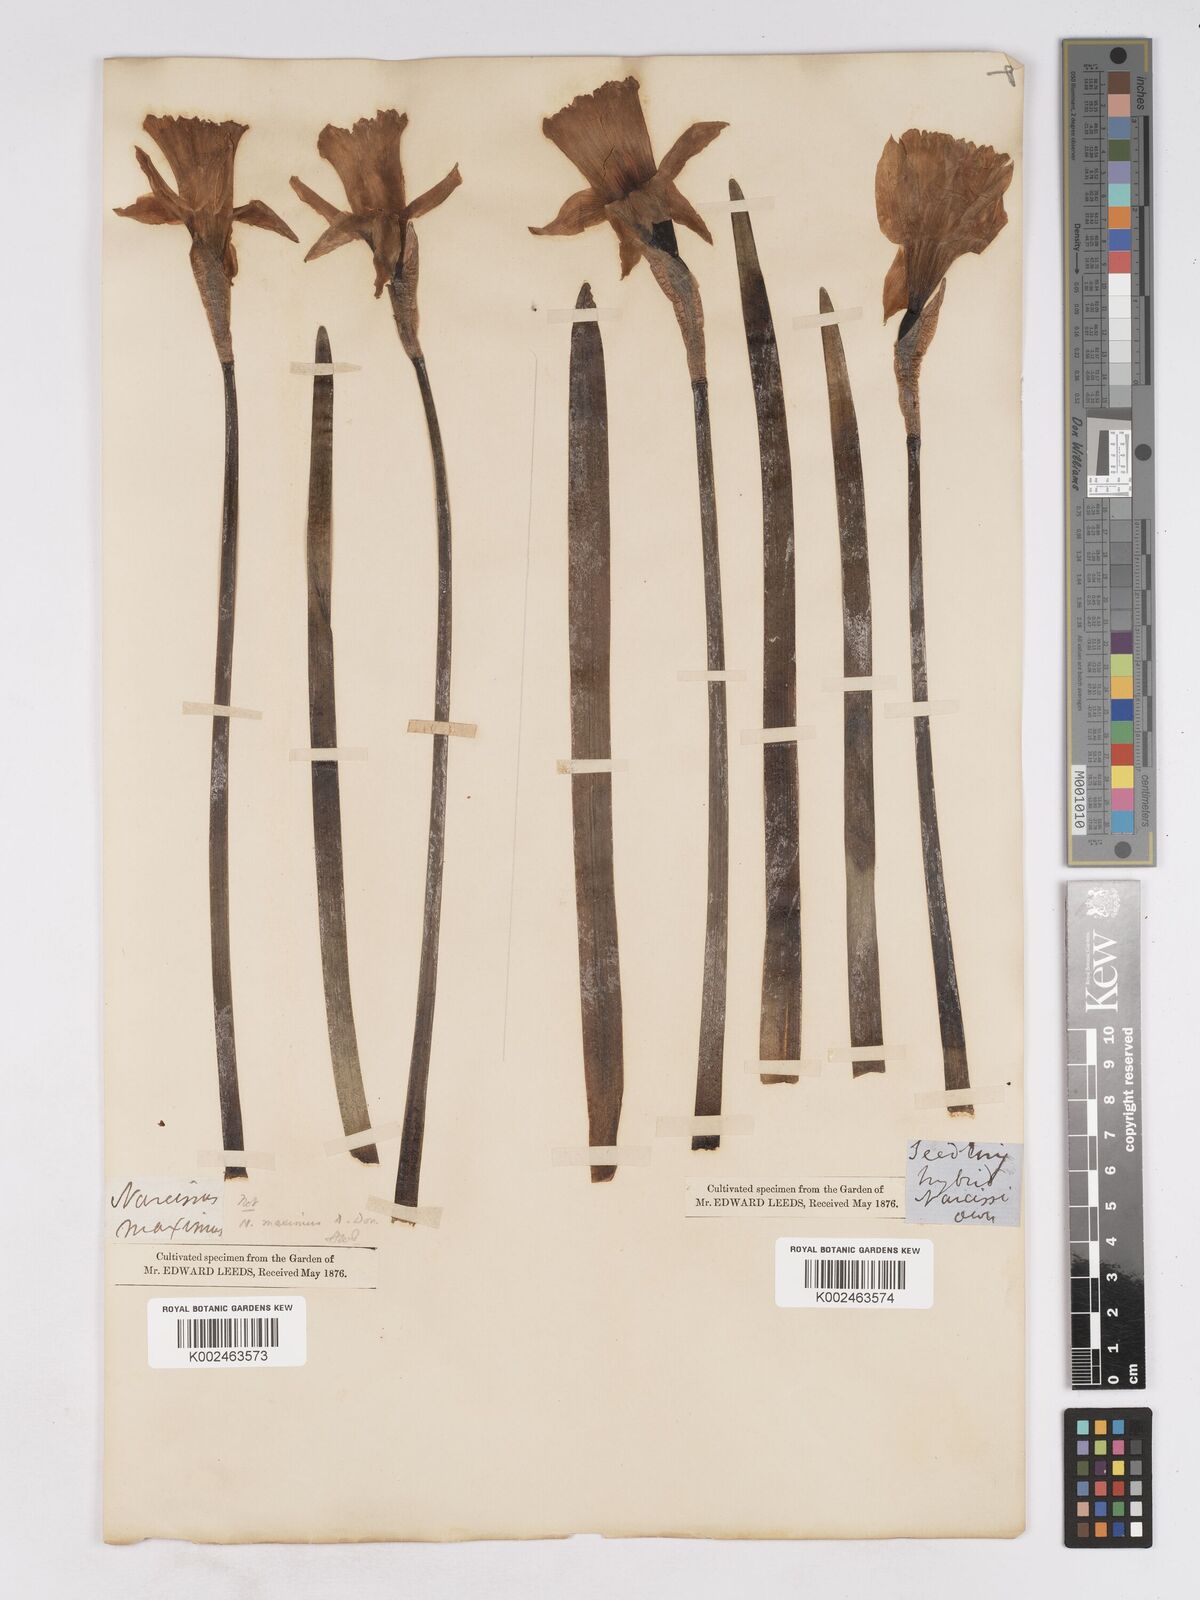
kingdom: Plantae
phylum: Tracheophyta
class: Liliopsida
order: Asparagales
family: Amaryllidaceae
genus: Narcissus
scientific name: Narcissus pseudonarcissus
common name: Daffodil
